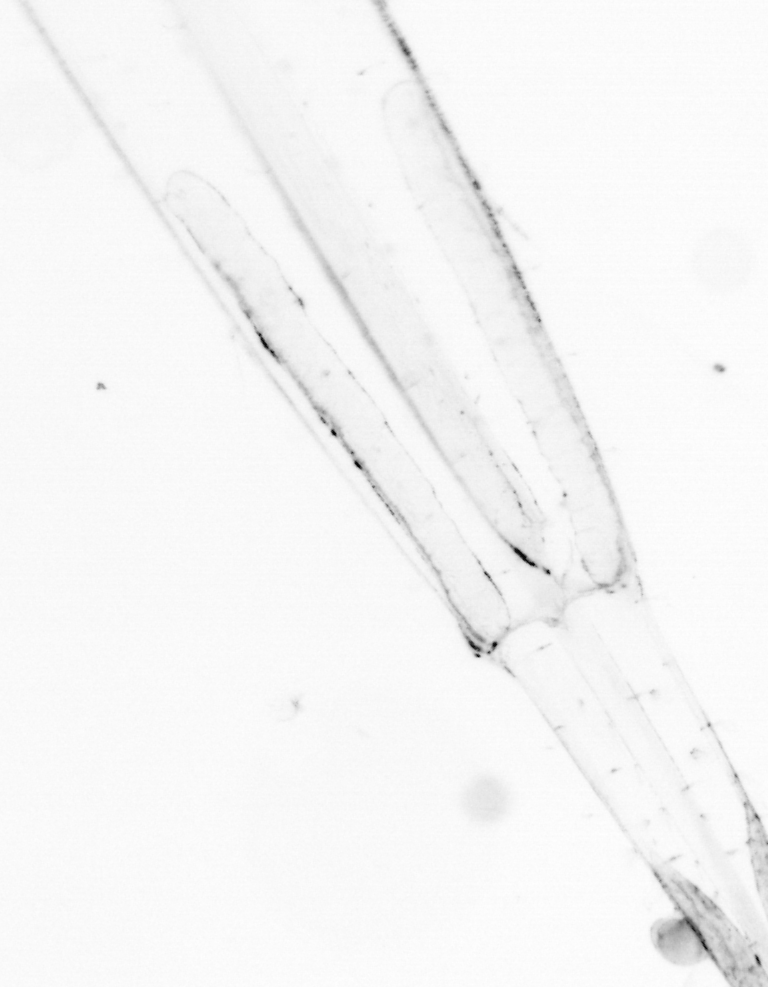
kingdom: Animalia
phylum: Chaetognatha
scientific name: Chaetognatha
